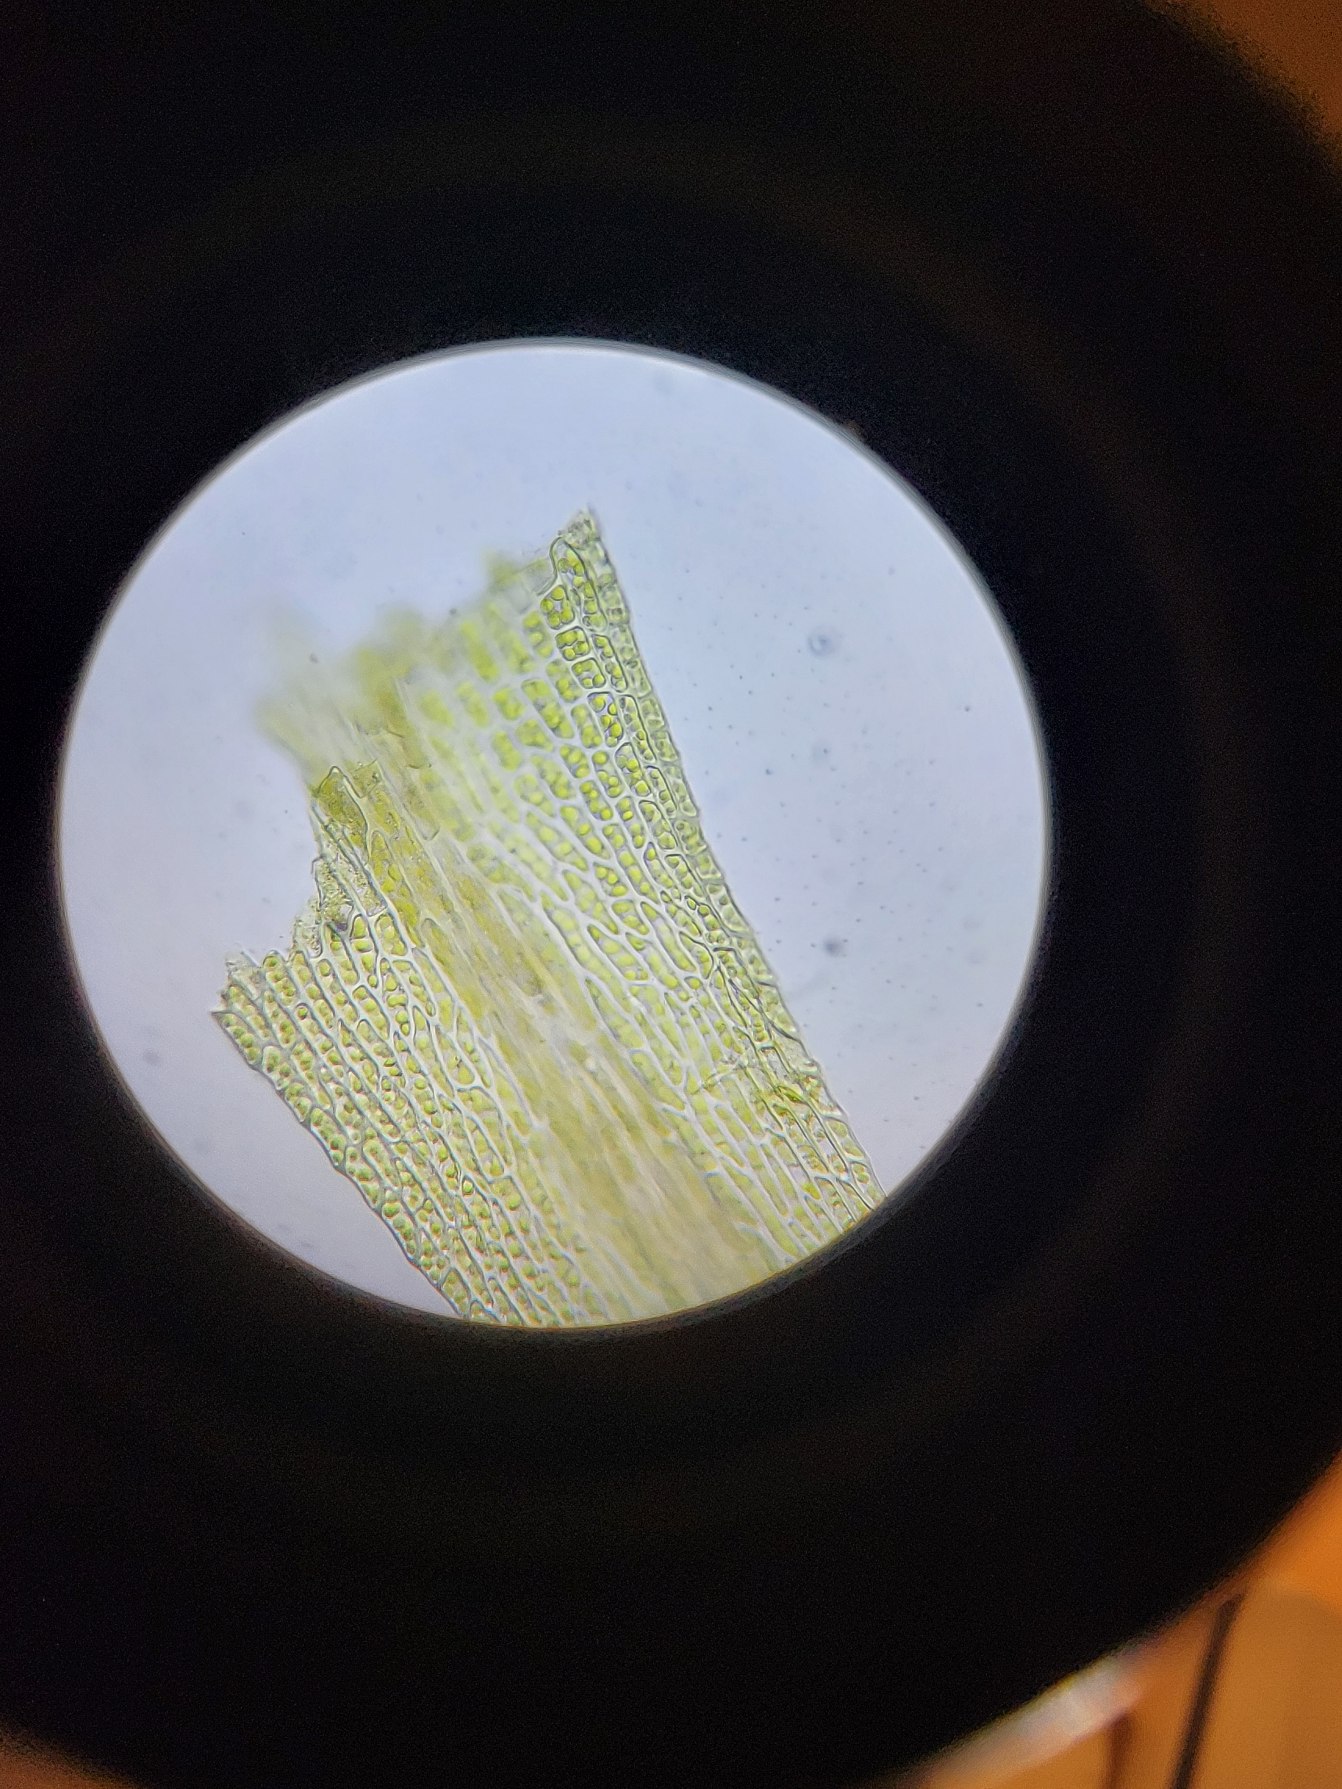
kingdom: Plantae
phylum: Bryophyta
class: Bryopsida
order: Archidiales
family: Archidiaceae
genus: Archidium
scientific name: Archidium alternifolium
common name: Stor sporemos
